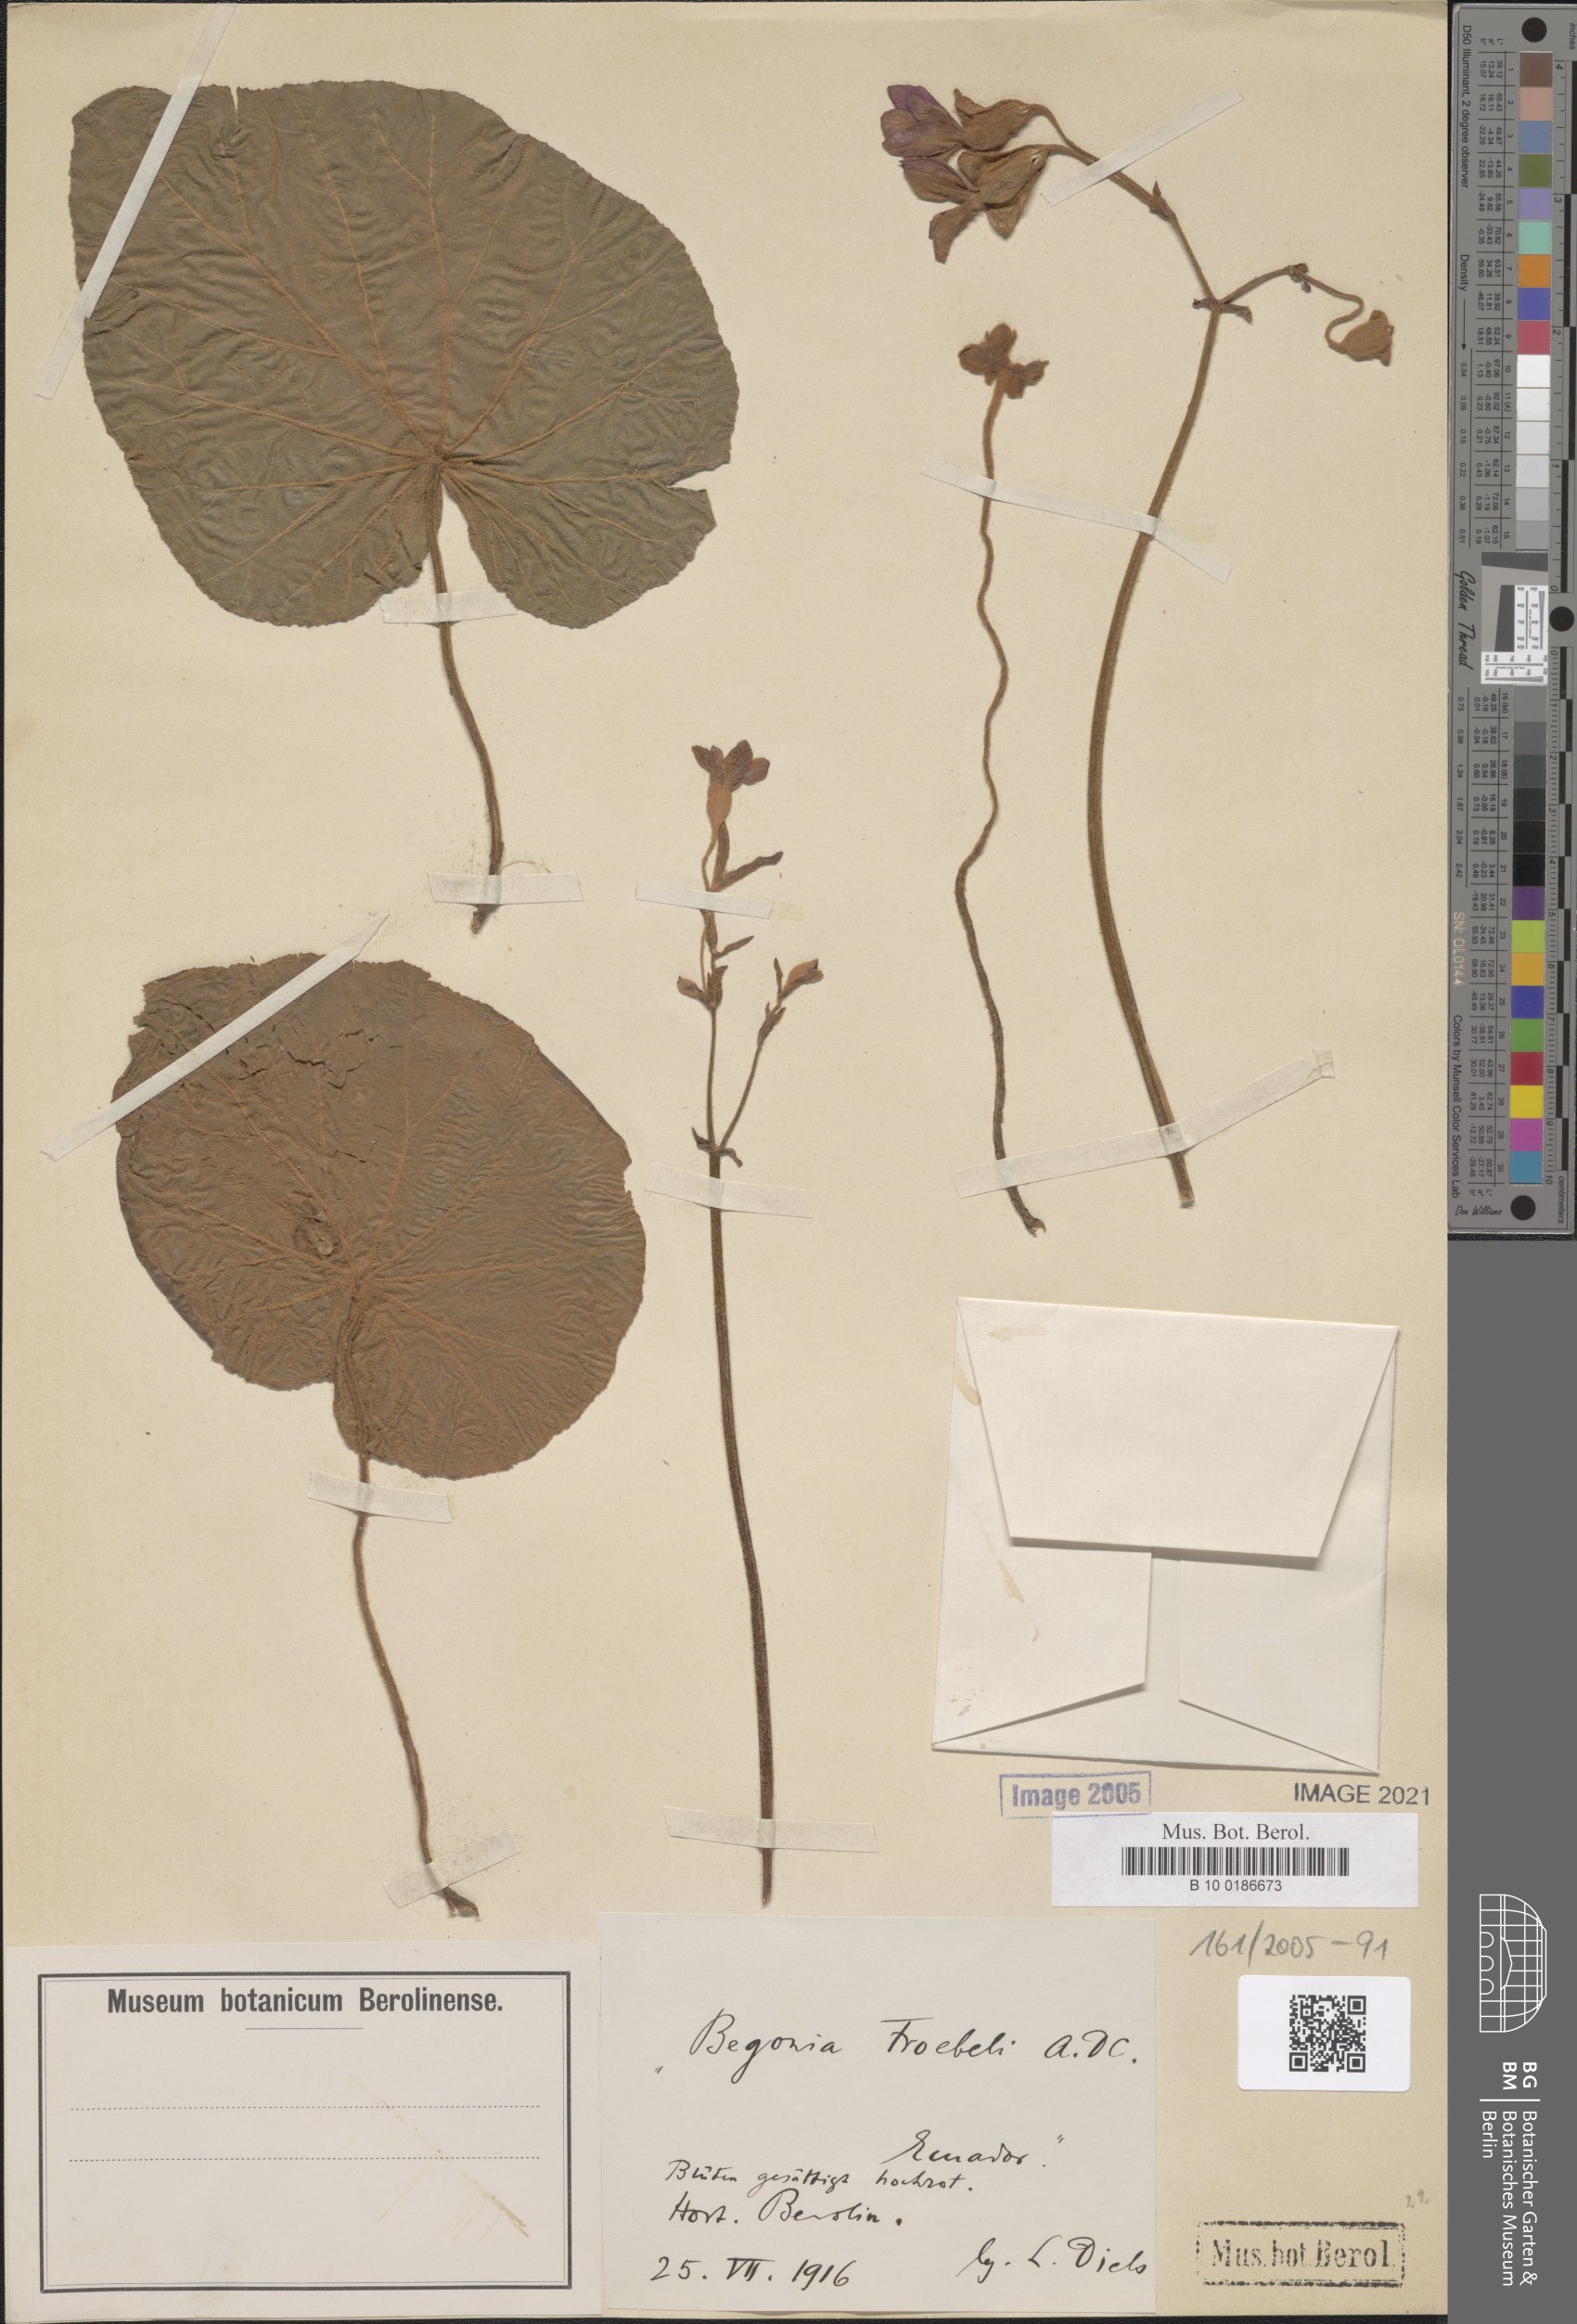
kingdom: Plantae
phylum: Tracheophyta
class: Magnoliopsida
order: Cucurbitales
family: Begoniaceae
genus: Begonia
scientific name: Begonia froebelii
